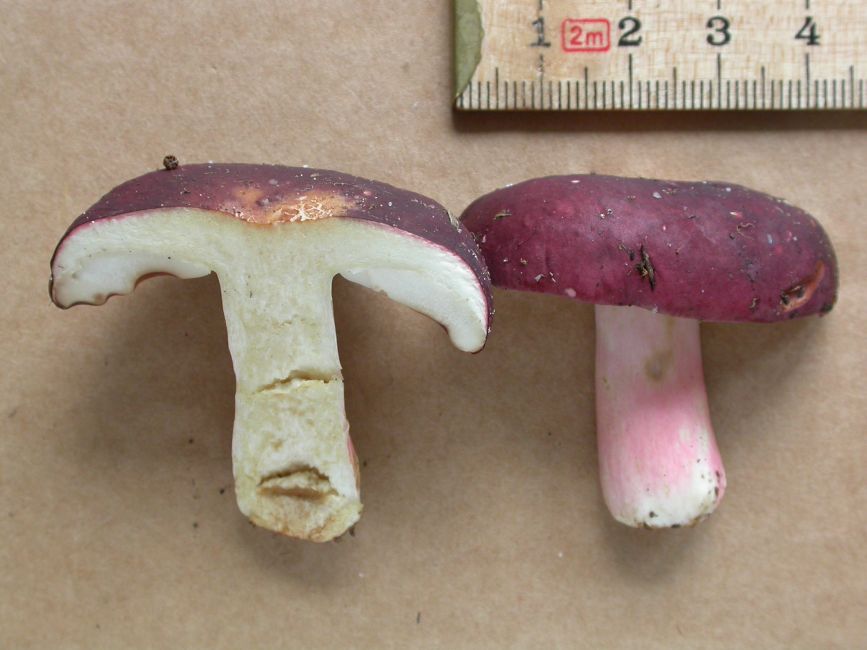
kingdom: Fungi
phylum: Basidiomycota
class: Agaricomycetes
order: Russulales
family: Russulaceae
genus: Russula
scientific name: Russula xerampelina
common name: hummer-skørhat
